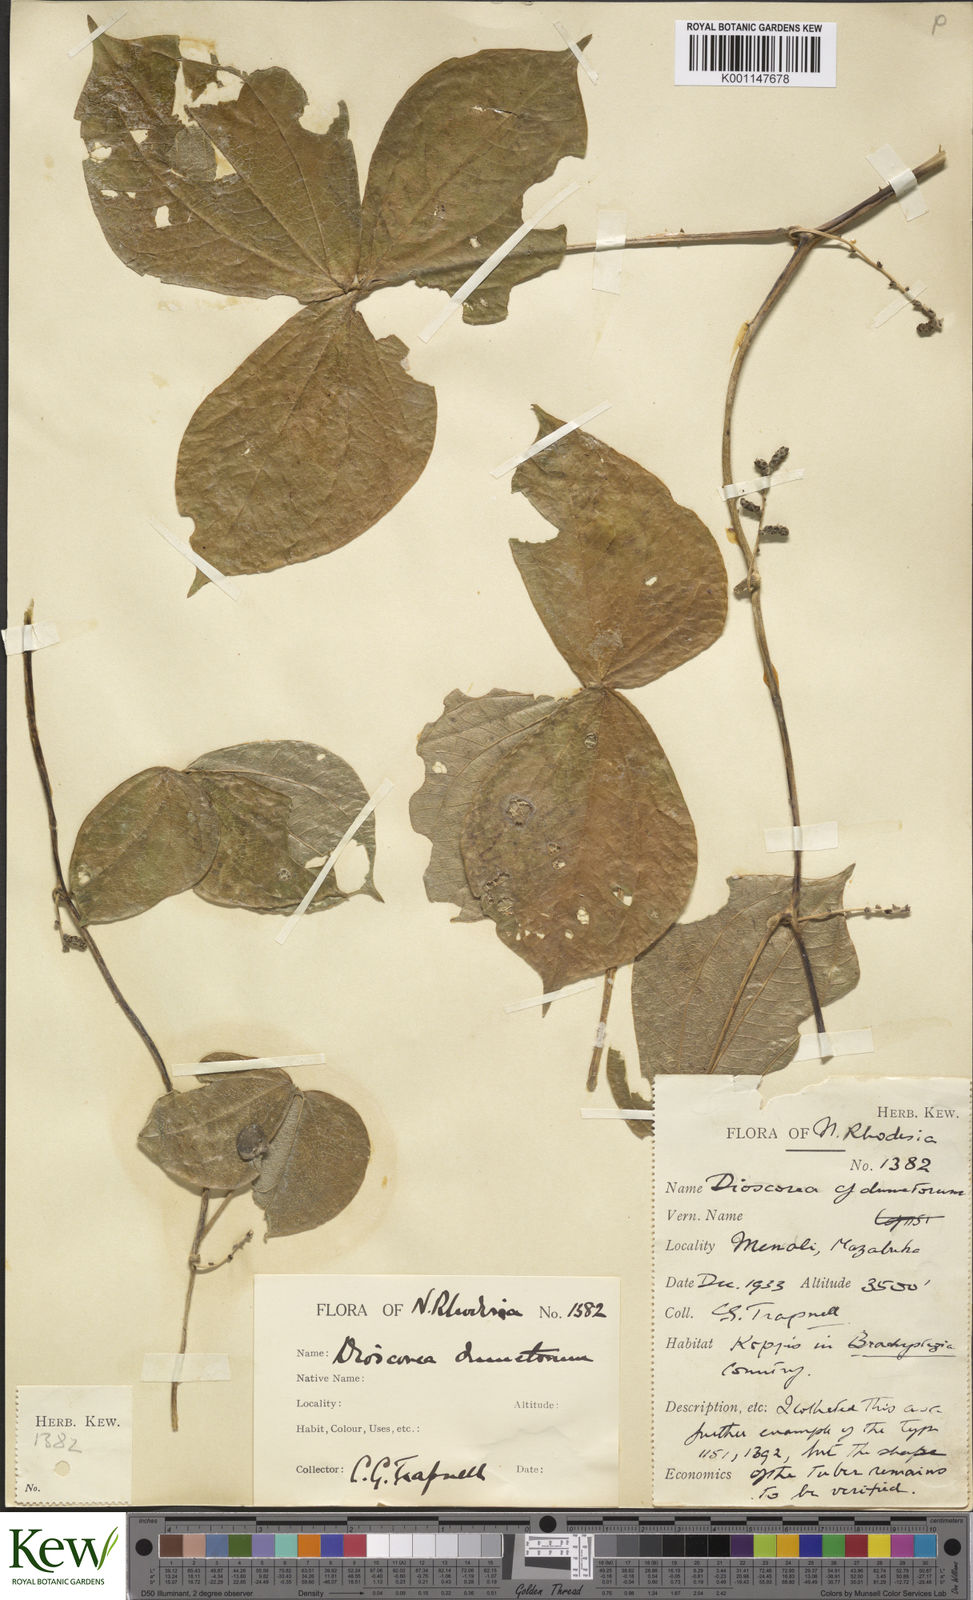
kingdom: Plantae
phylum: Tracheophyta
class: Liliopsida
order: Dioscoreales
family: Dioscoreaceae
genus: Dioscorea
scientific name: Dioscorea dumetorum
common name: African bitter yam
